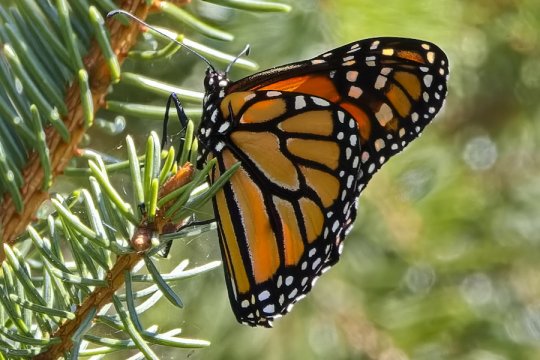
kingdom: Animalia
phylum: Arthropoda
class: Insecta
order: Lepidoptera
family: Nymphalidae
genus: Danaus
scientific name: Danaus plexippus
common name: Monarch
